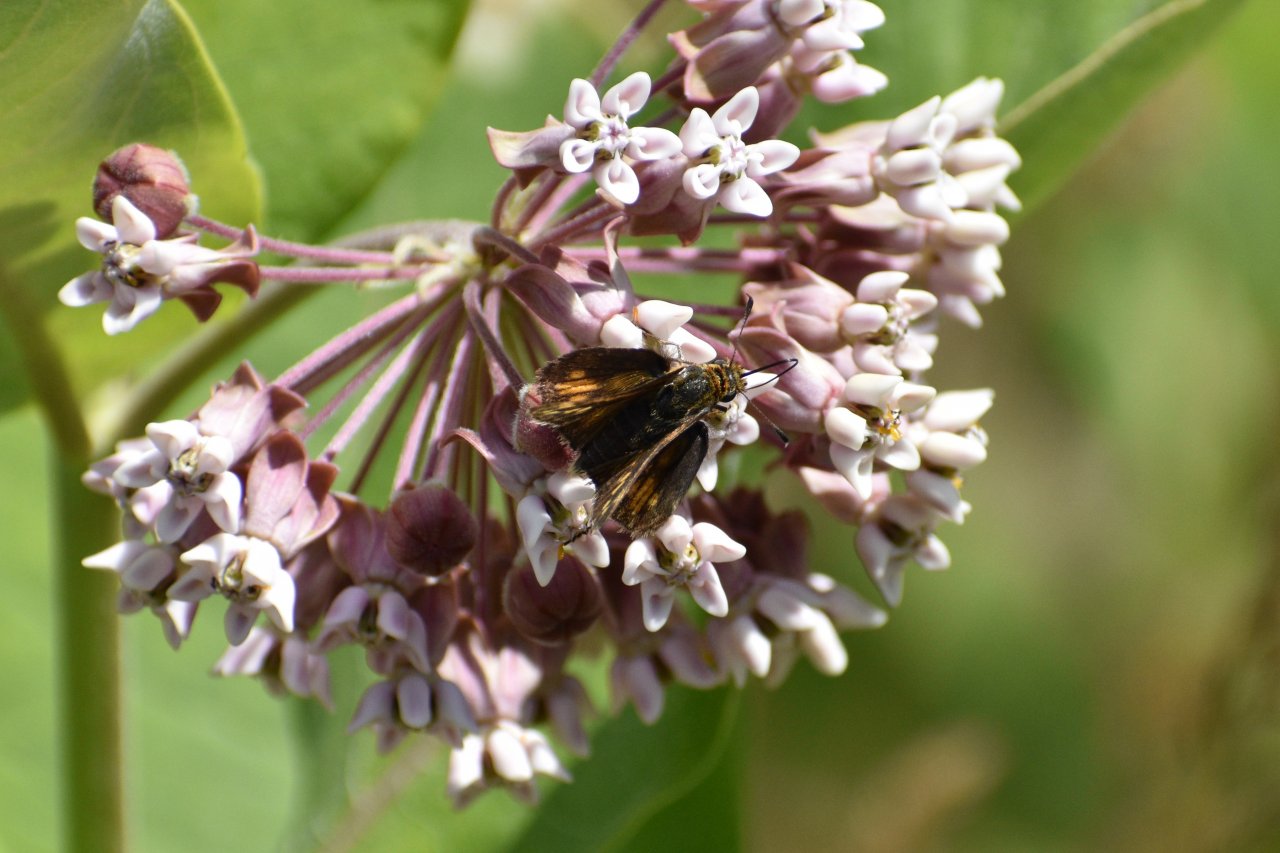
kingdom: Animalia
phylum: Arthropoda
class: Insecta
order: Lepidoptera
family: Hesperiidae
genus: Polites
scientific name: Polites coras
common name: Peck's Skipper
